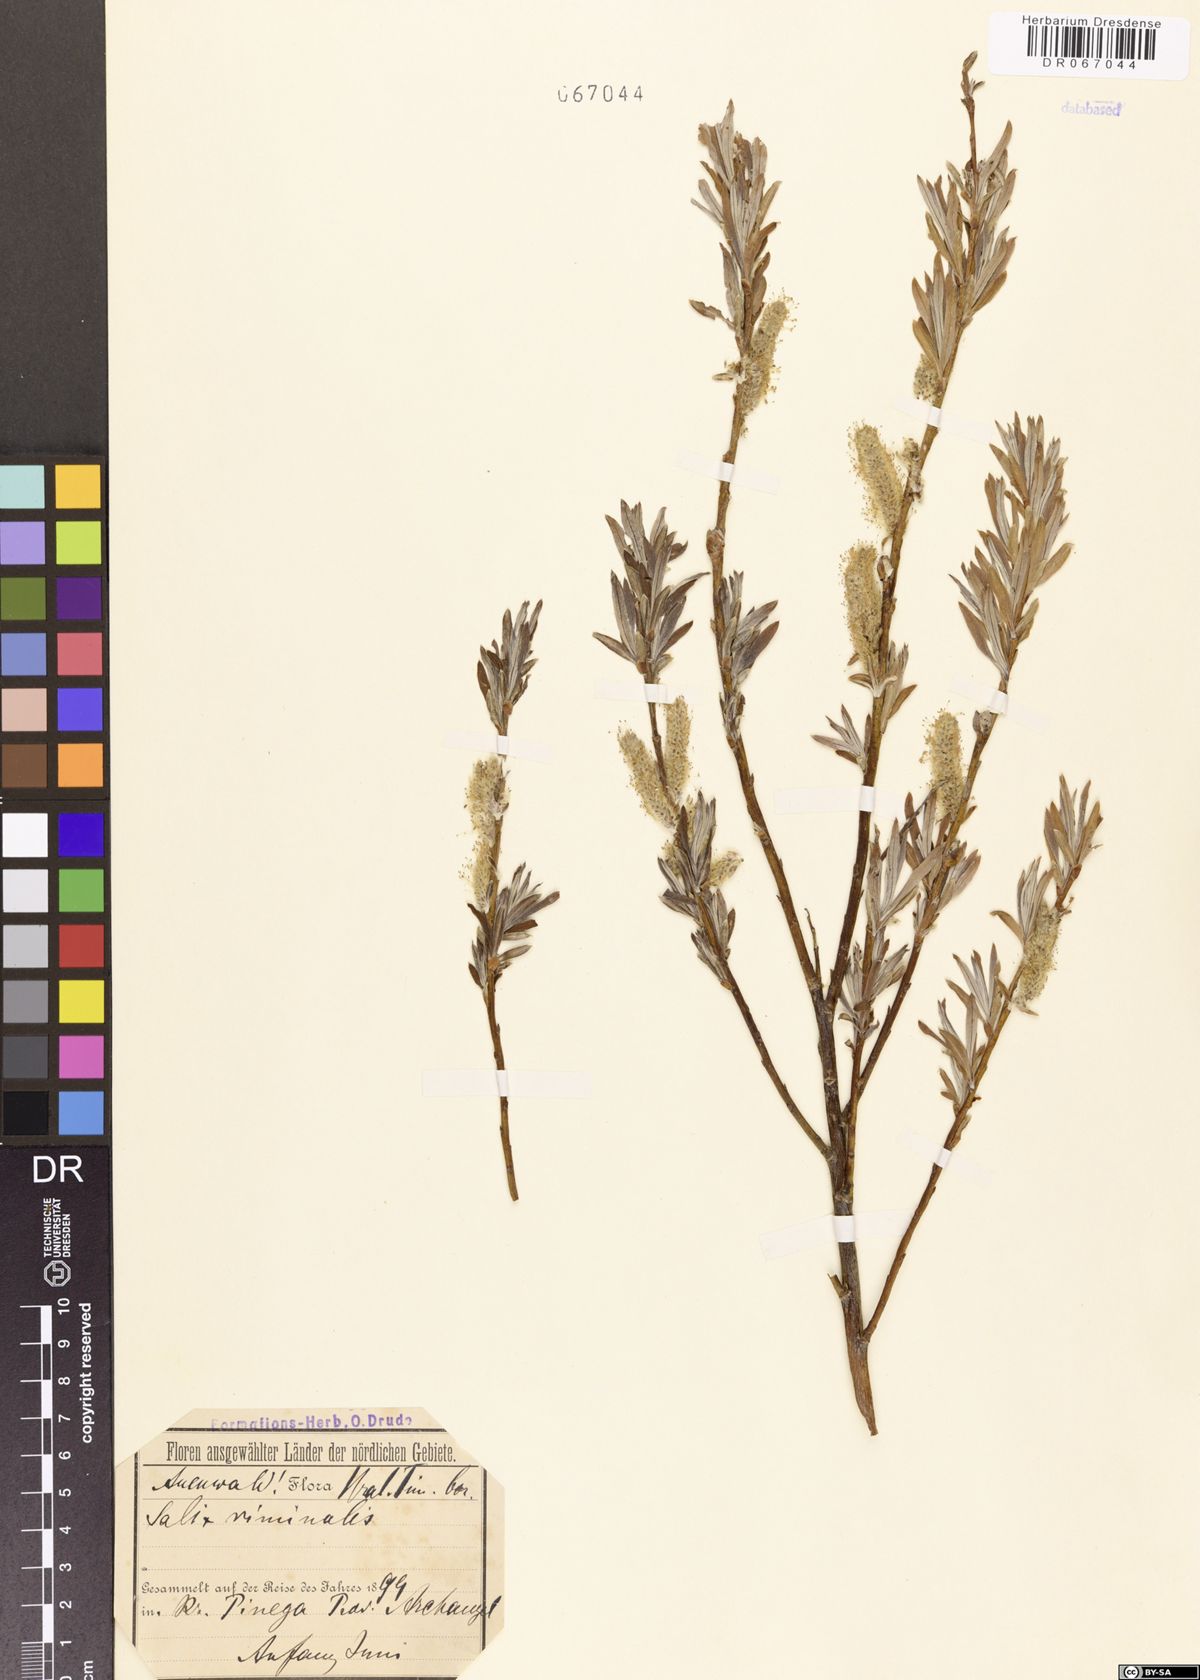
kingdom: Plantae
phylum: Tracheophyta
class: Magnoliopsida
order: Malpighiales
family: Salicaceae
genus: Salix
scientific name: Salix viminalis
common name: Osier
